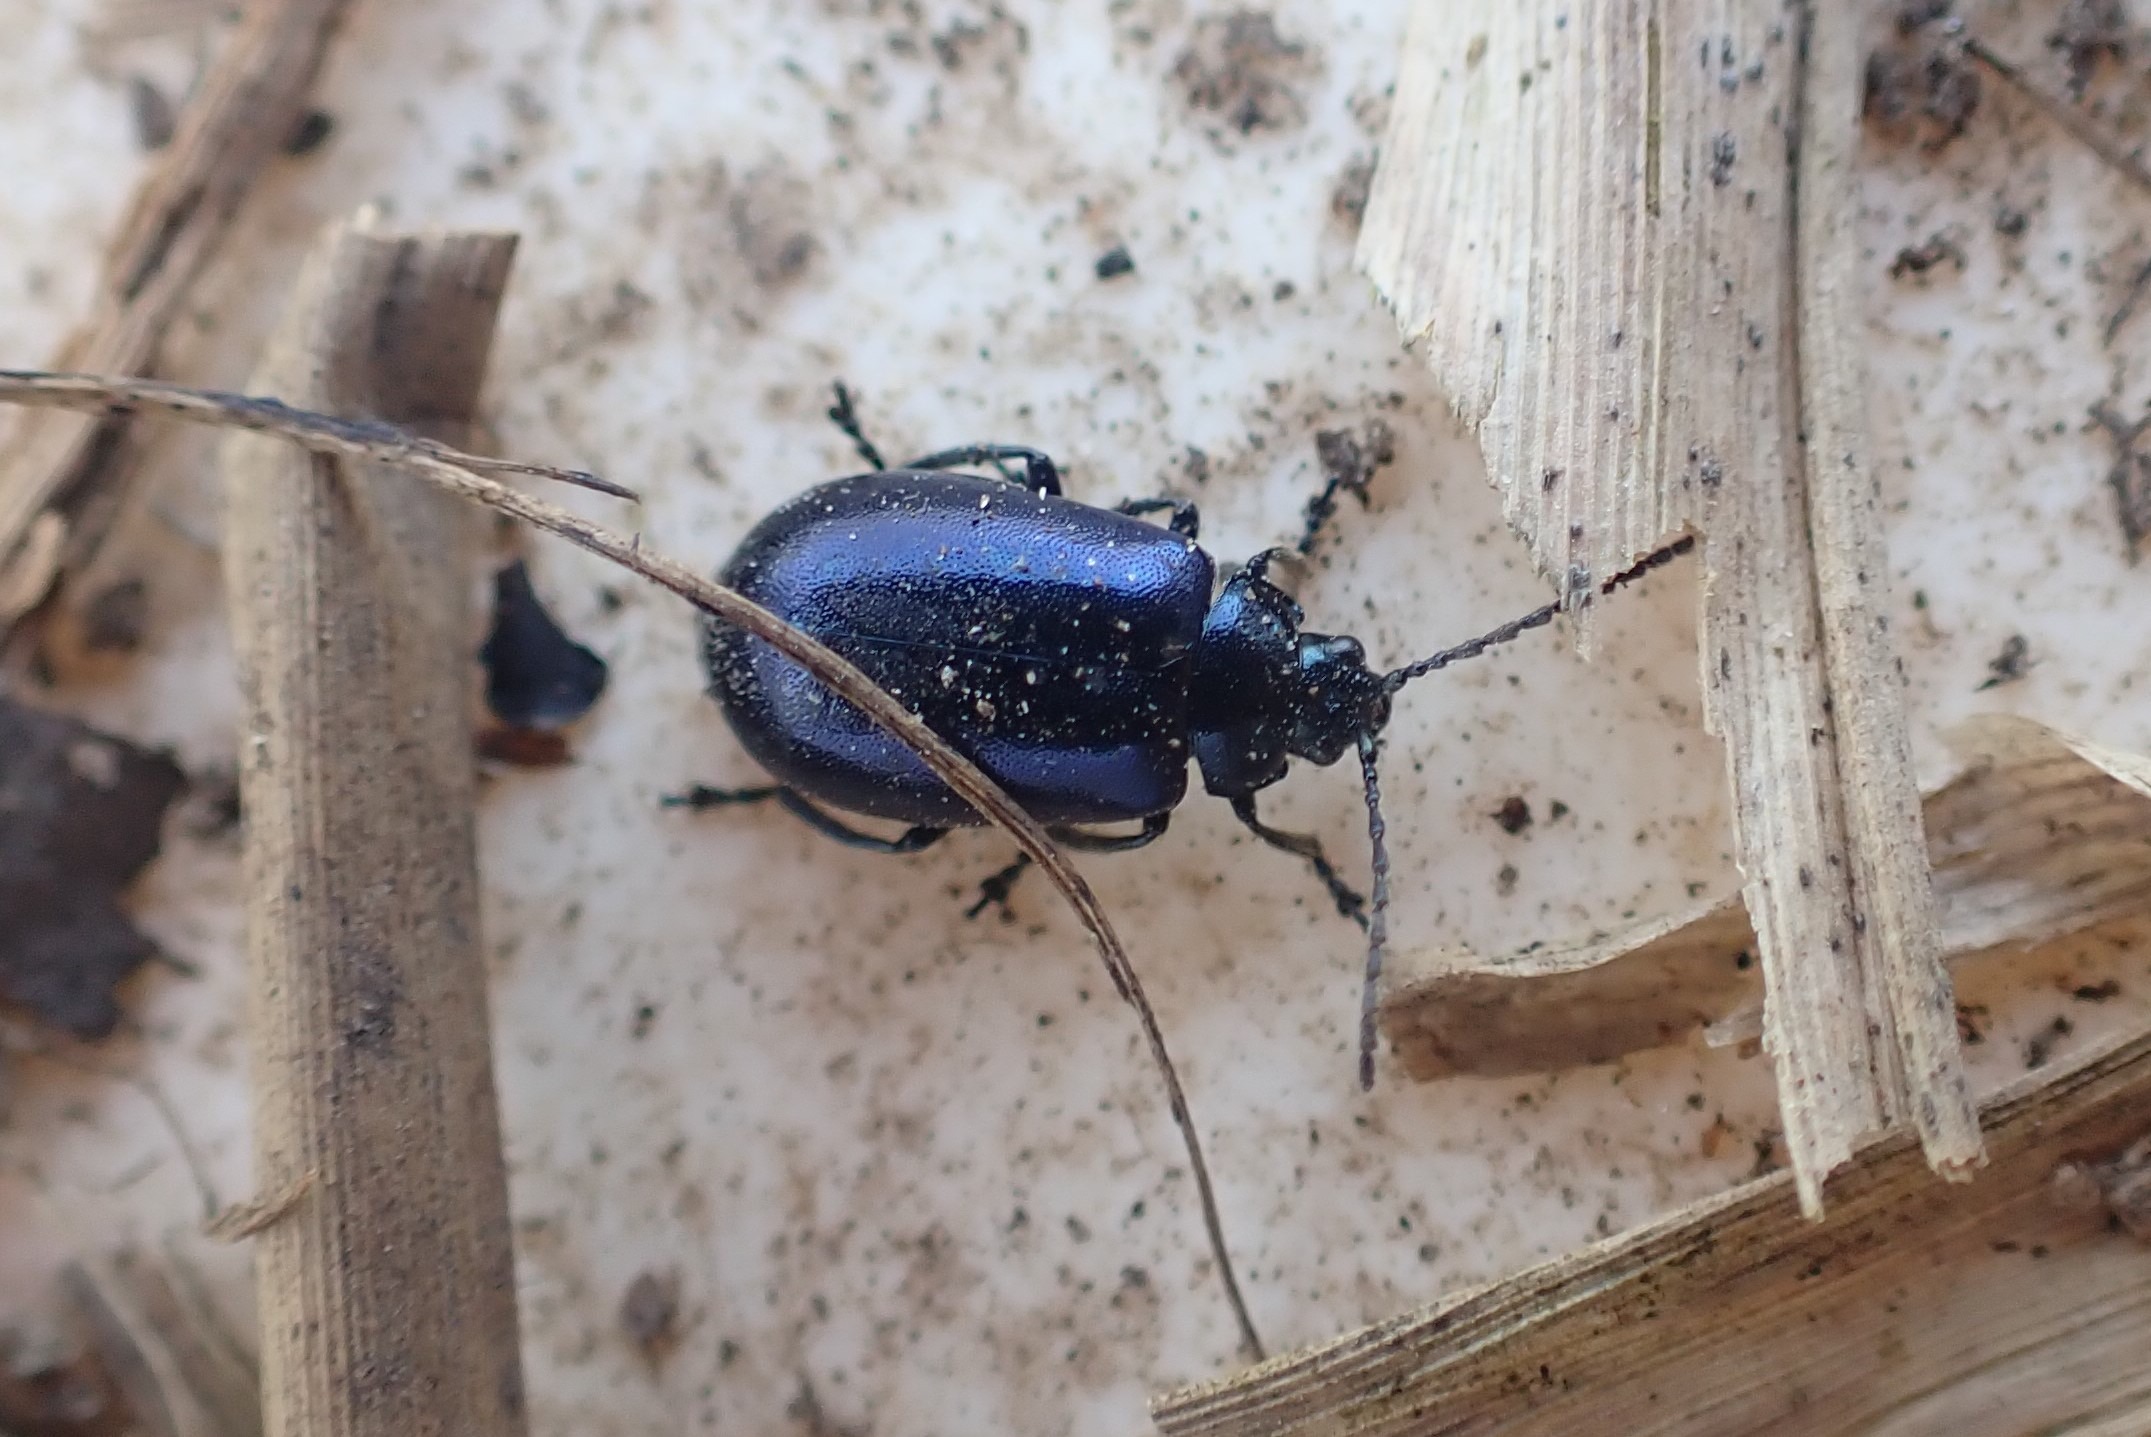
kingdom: Animalia
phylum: Arthropoda
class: Insecta
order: Coleoptera
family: Chrysomelidae
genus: Agelastica
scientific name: Agelastica alni
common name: Ellebladbille
